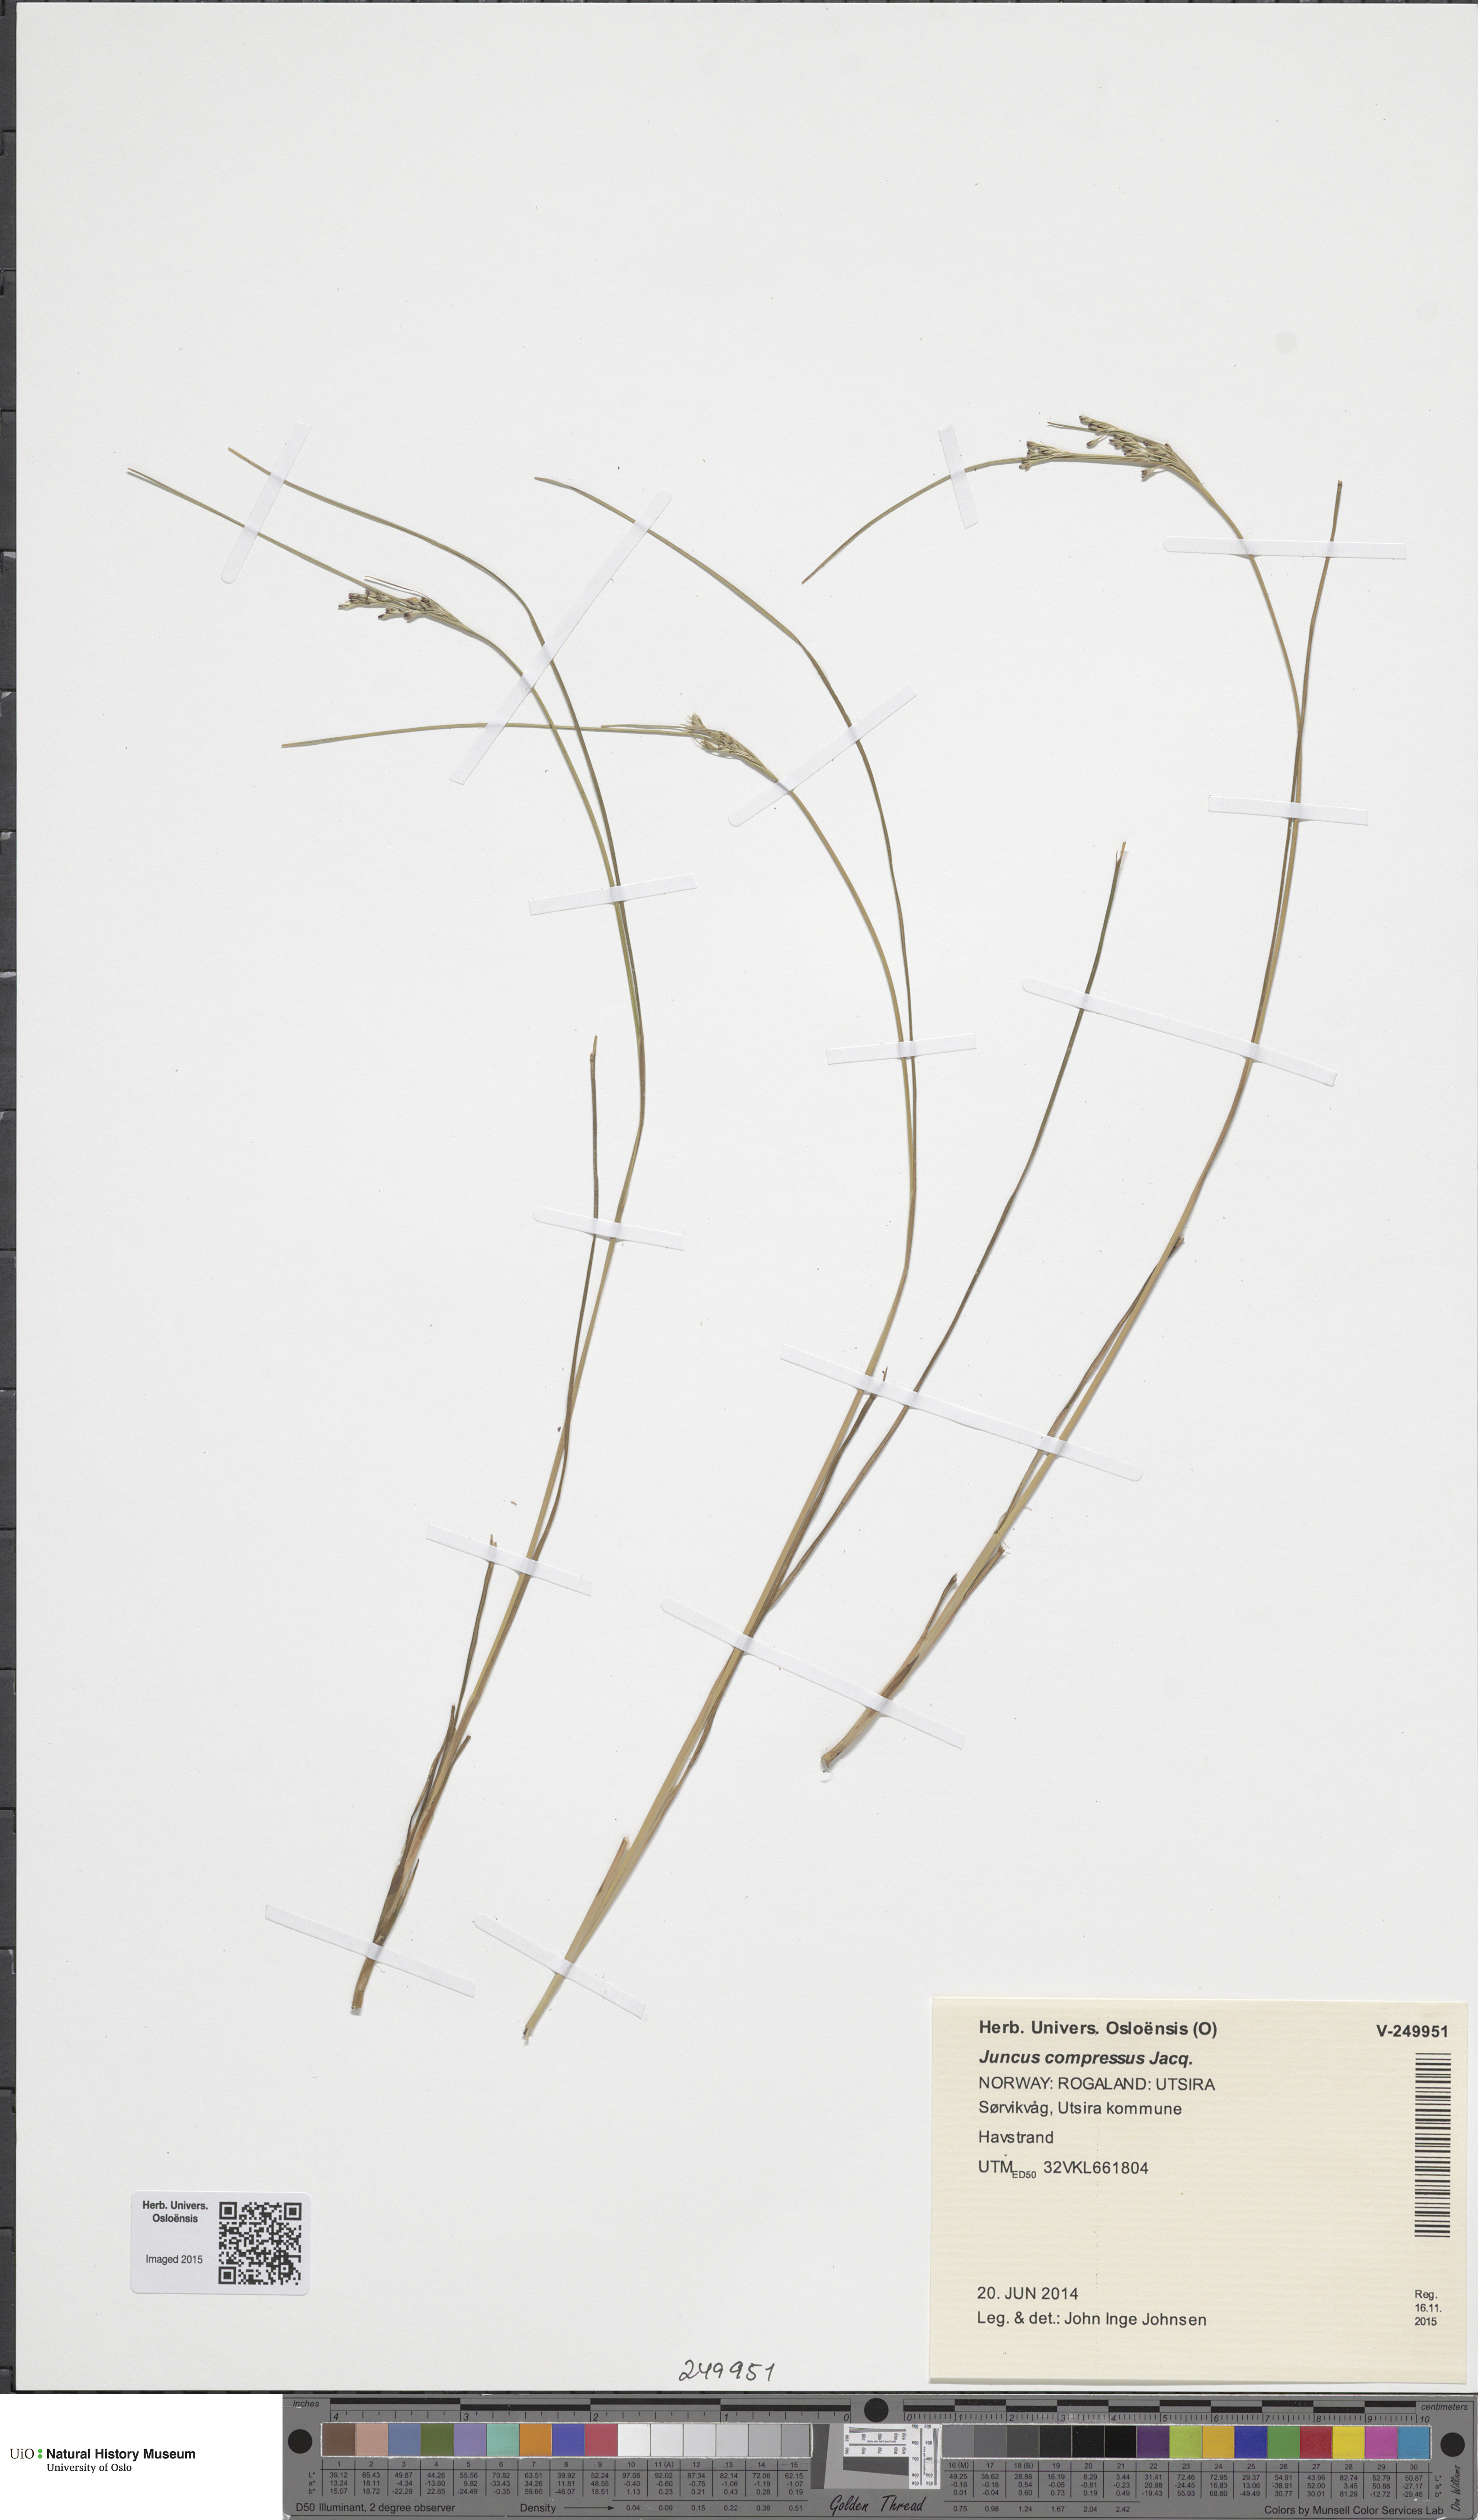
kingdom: Plantae
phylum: Tracheophyta
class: Liliopsida
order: Poales
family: Juncaceae
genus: Juncus
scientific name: Juncus compressus
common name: Round-fruited rush
